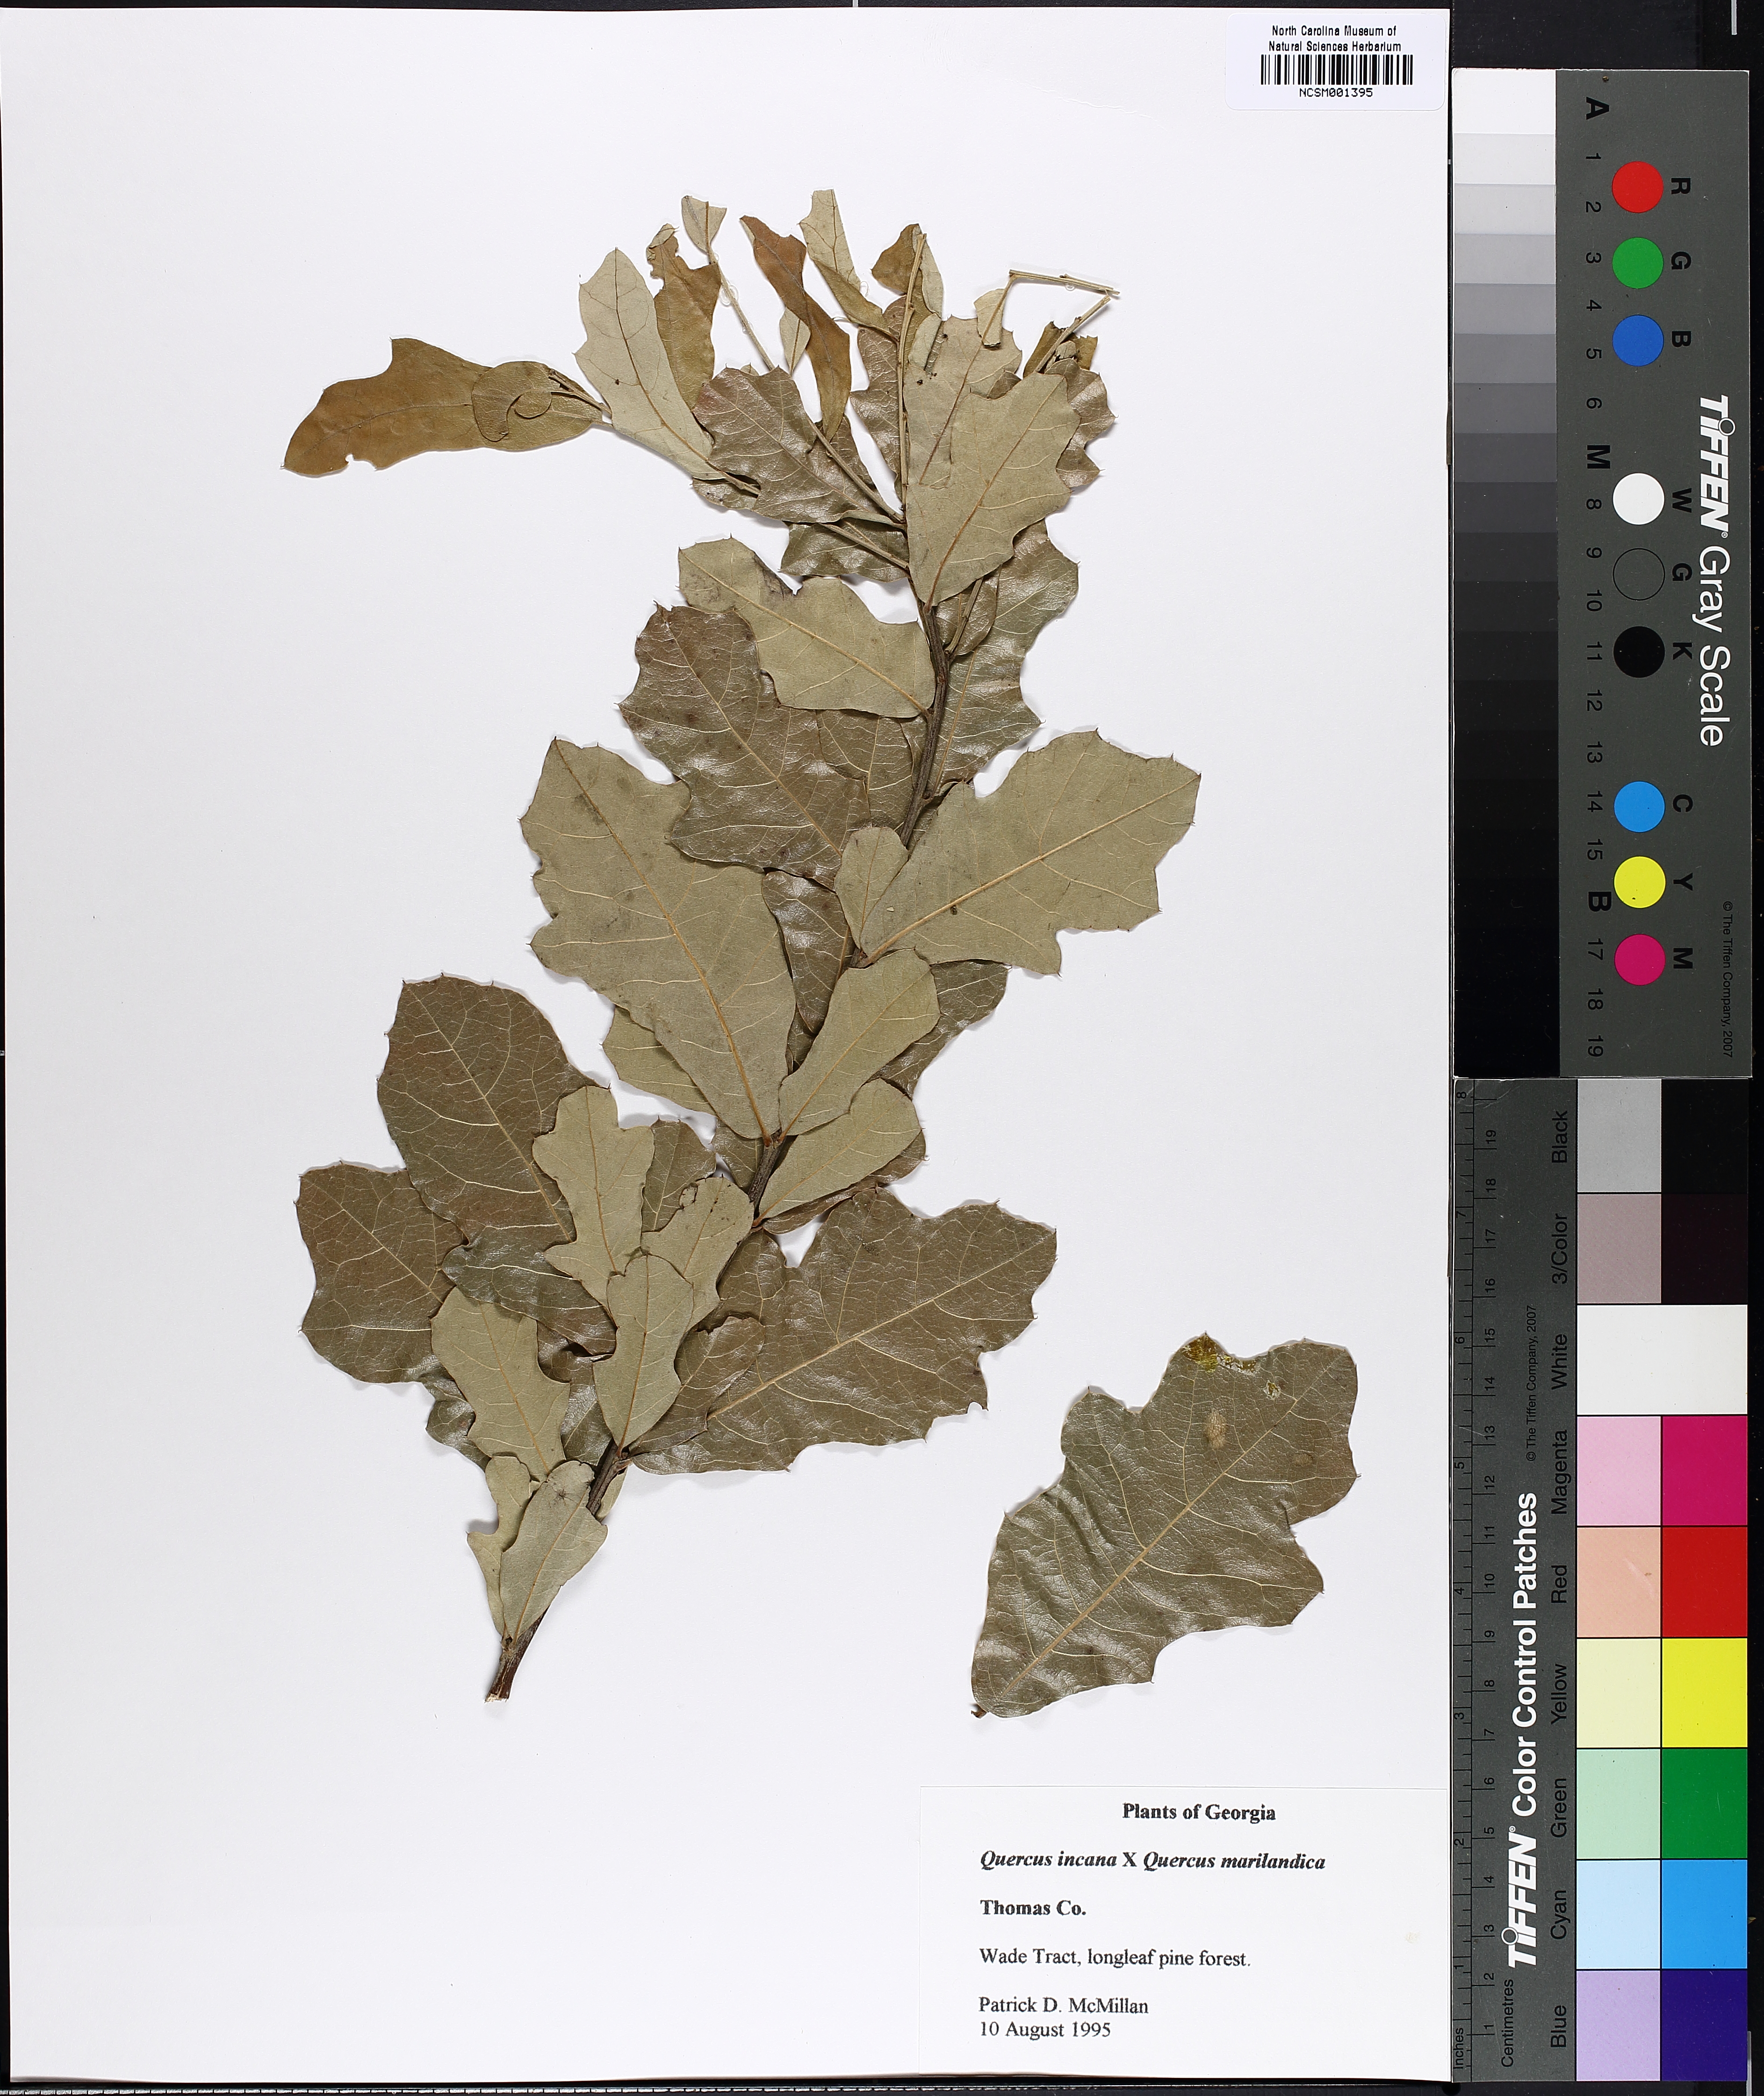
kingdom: Plantae
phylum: Tracheophyta
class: Magnoliopsida
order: Fagales
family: Fagaceae
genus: Quercus
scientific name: Quercus cravenensis
